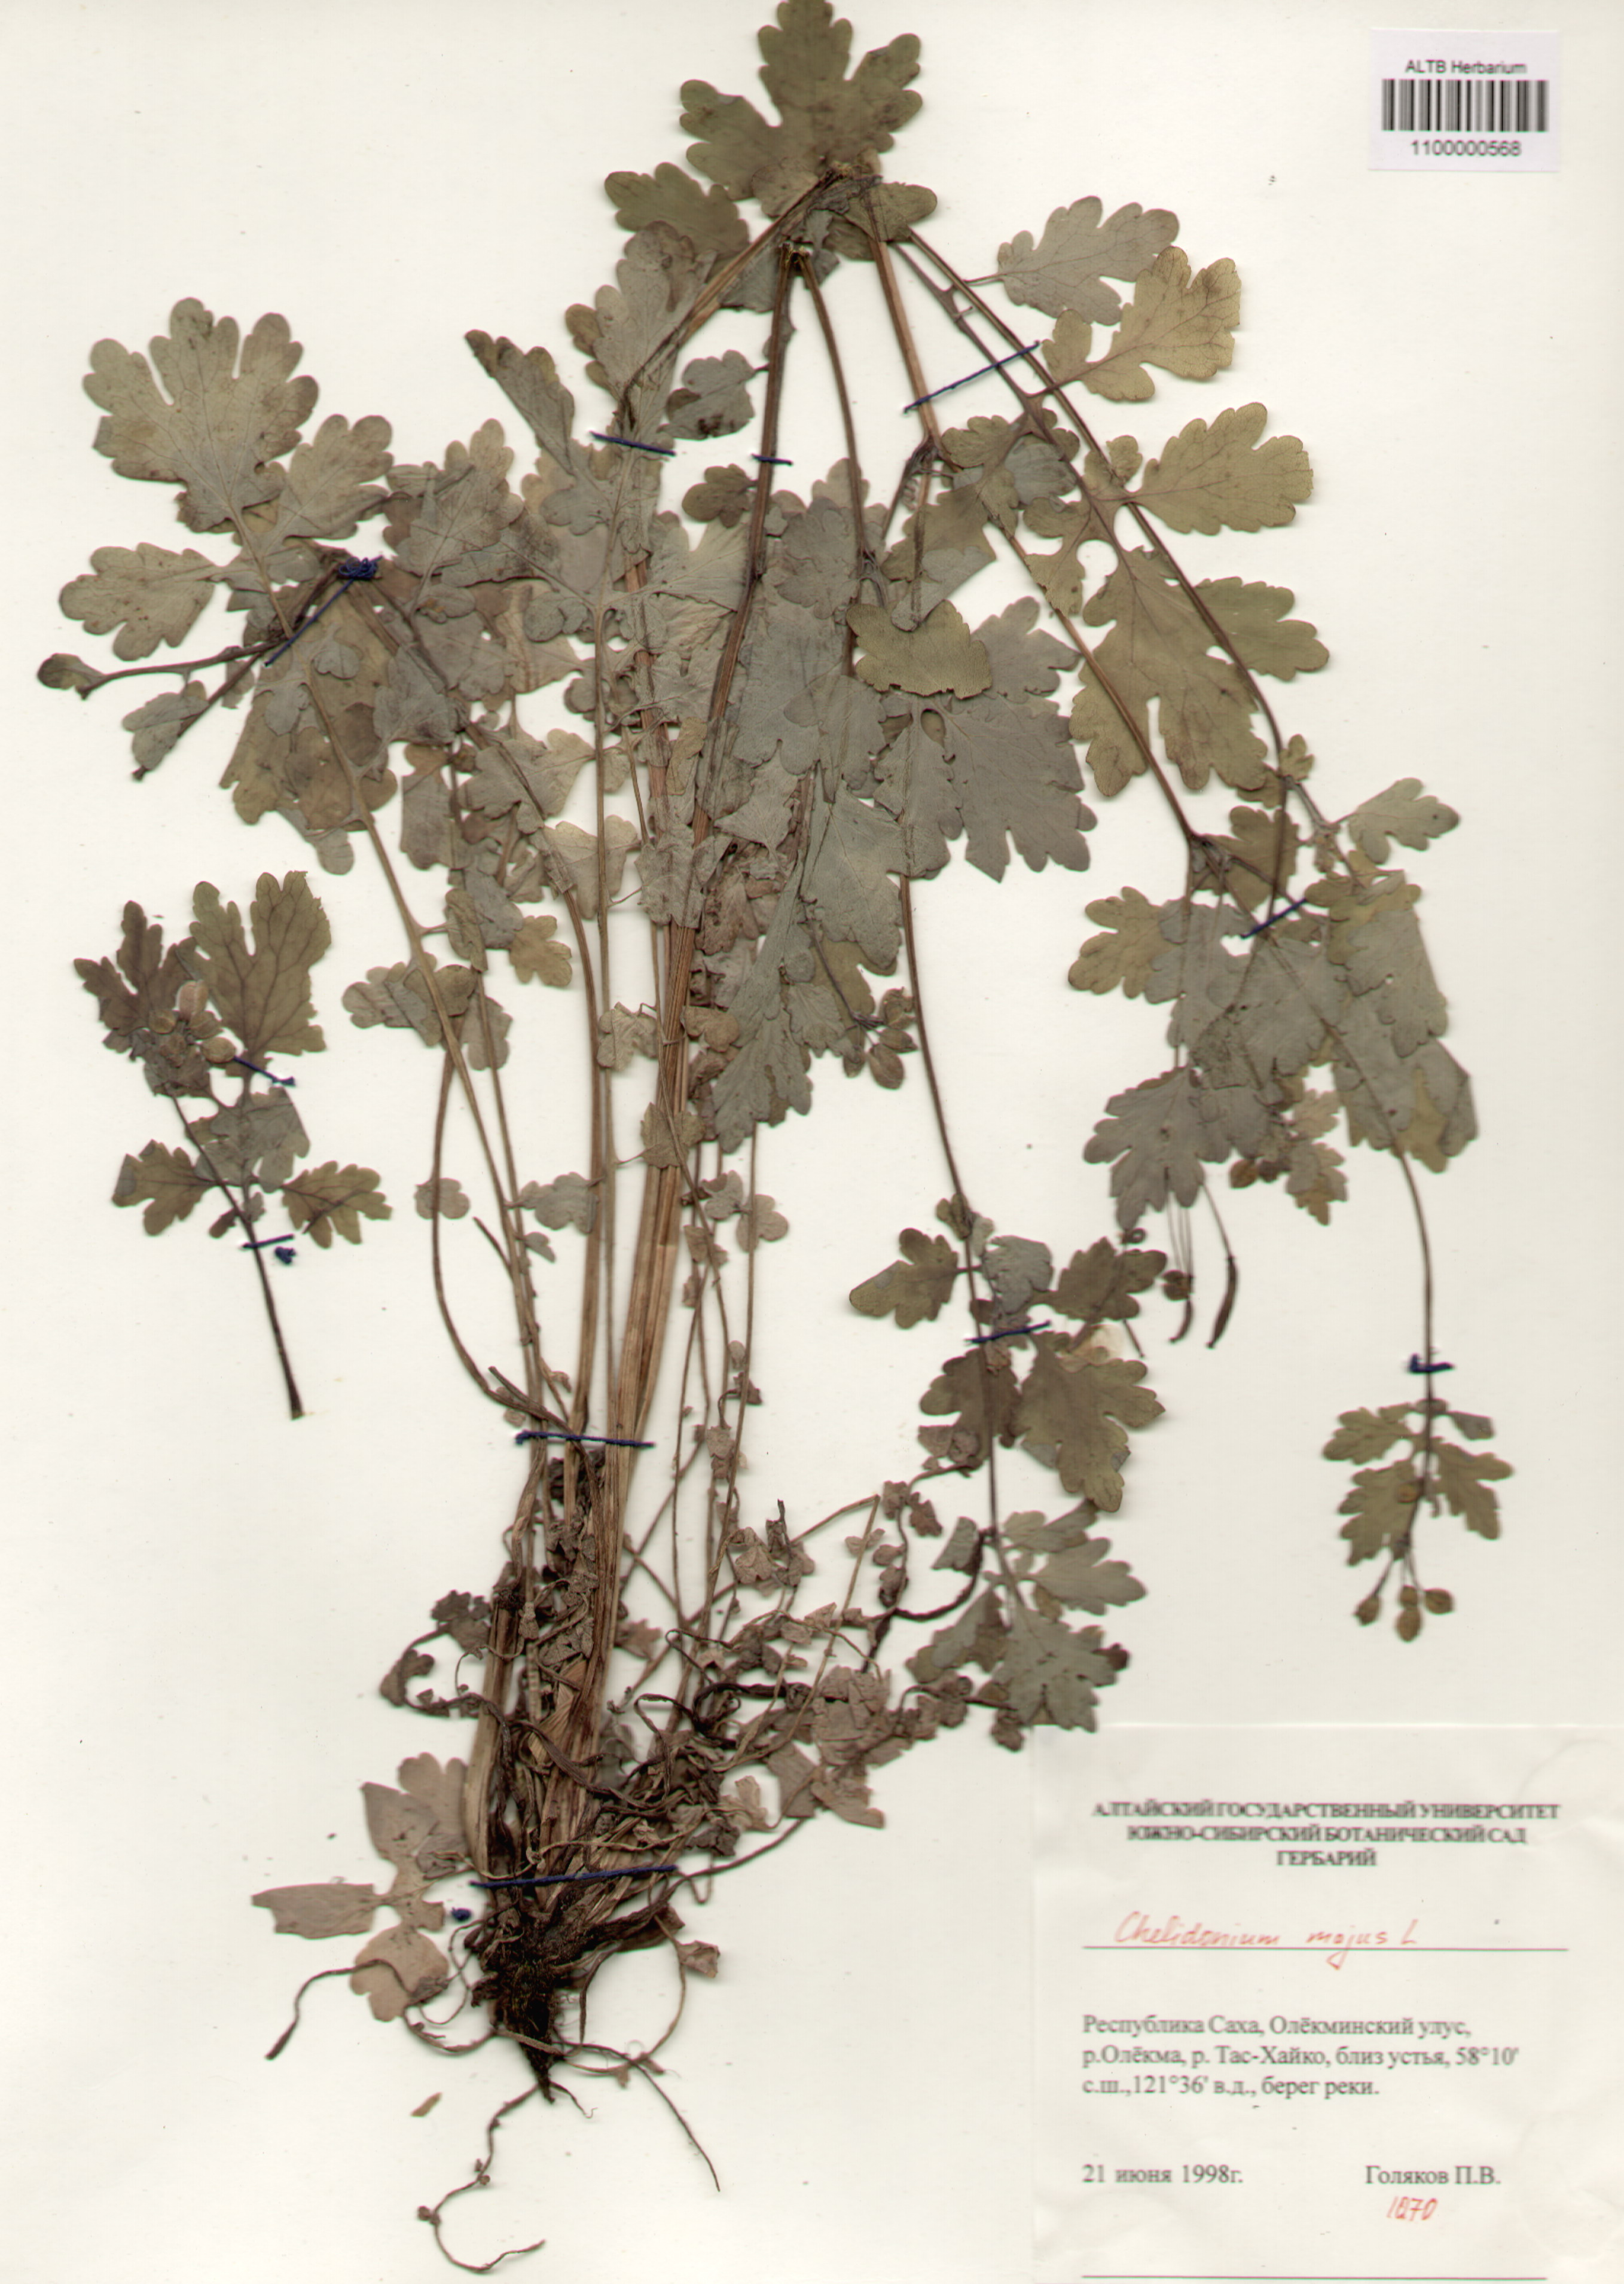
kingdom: Plantae
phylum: Tracheophyta
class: Magnoliopsida
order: Ranunculales
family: Papaveraceae
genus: Chelidonium
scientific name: Chelidonium majus
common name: Greater celandine
